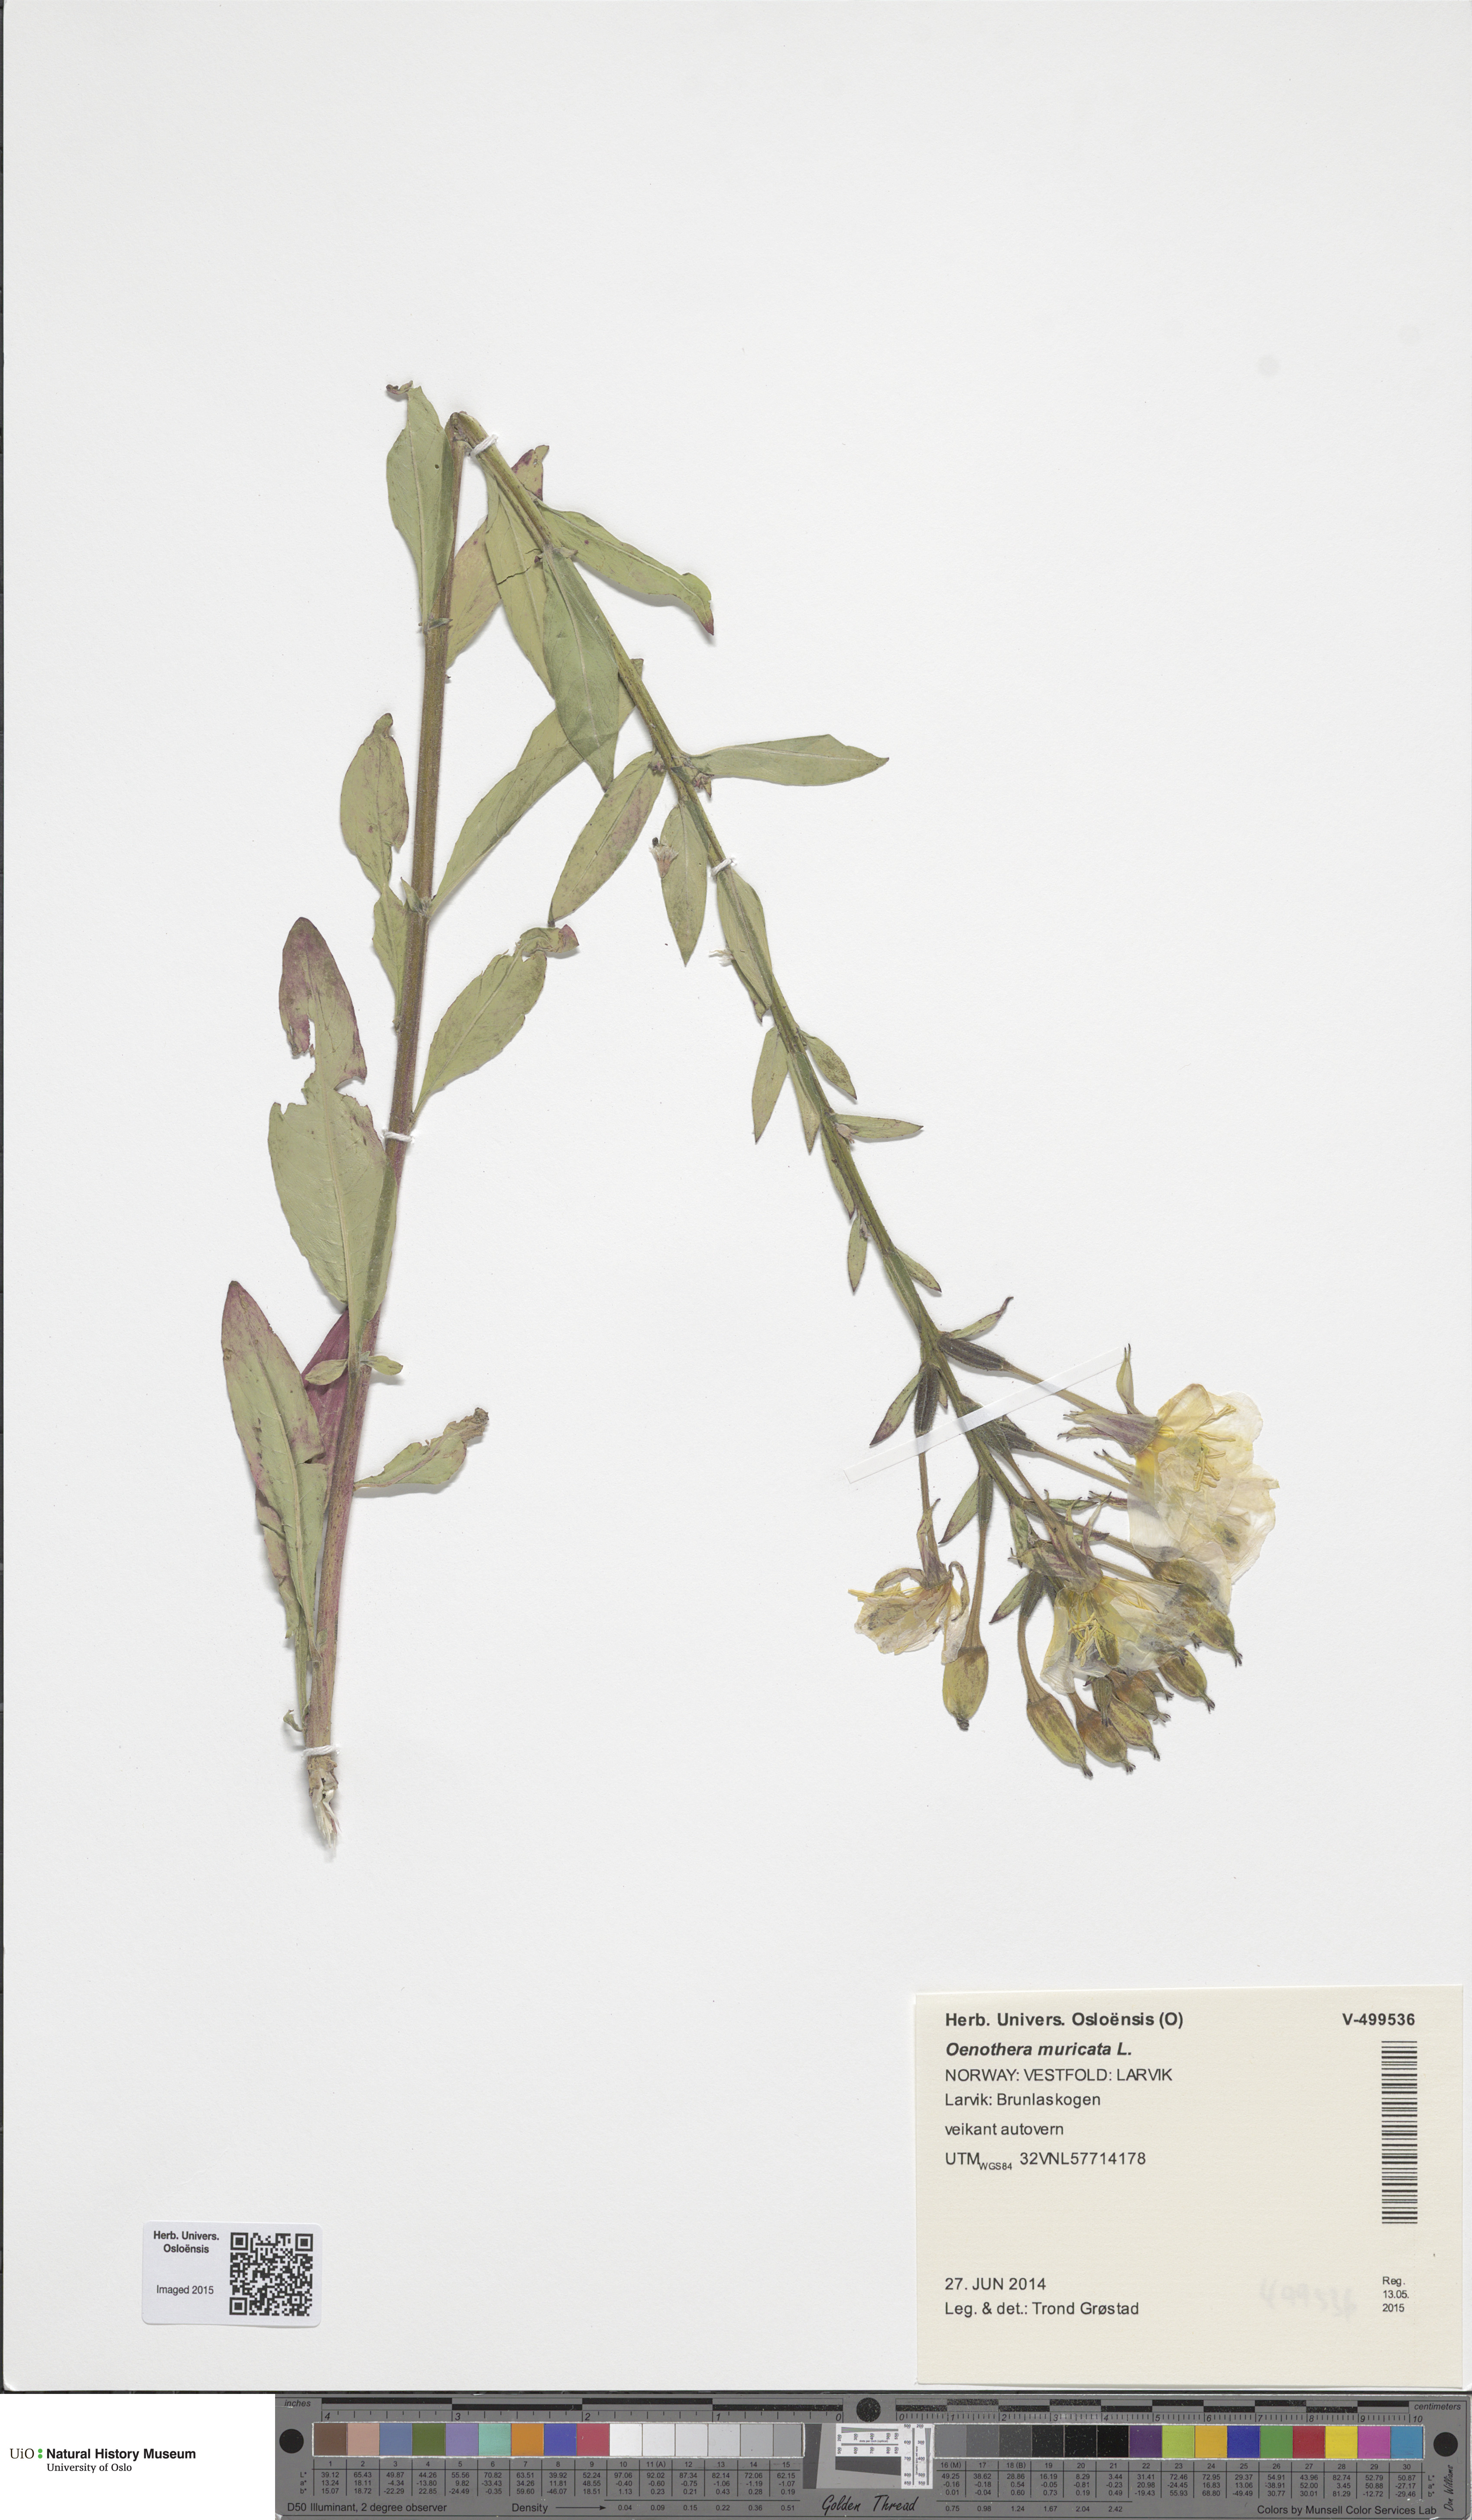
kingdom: Plantae
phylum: Tracheophyta
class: Magnoliopsida
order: Myrtales
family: Onagraceae
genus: Oenothera
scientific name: Oenothera biennis
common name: Common evening-primrose
